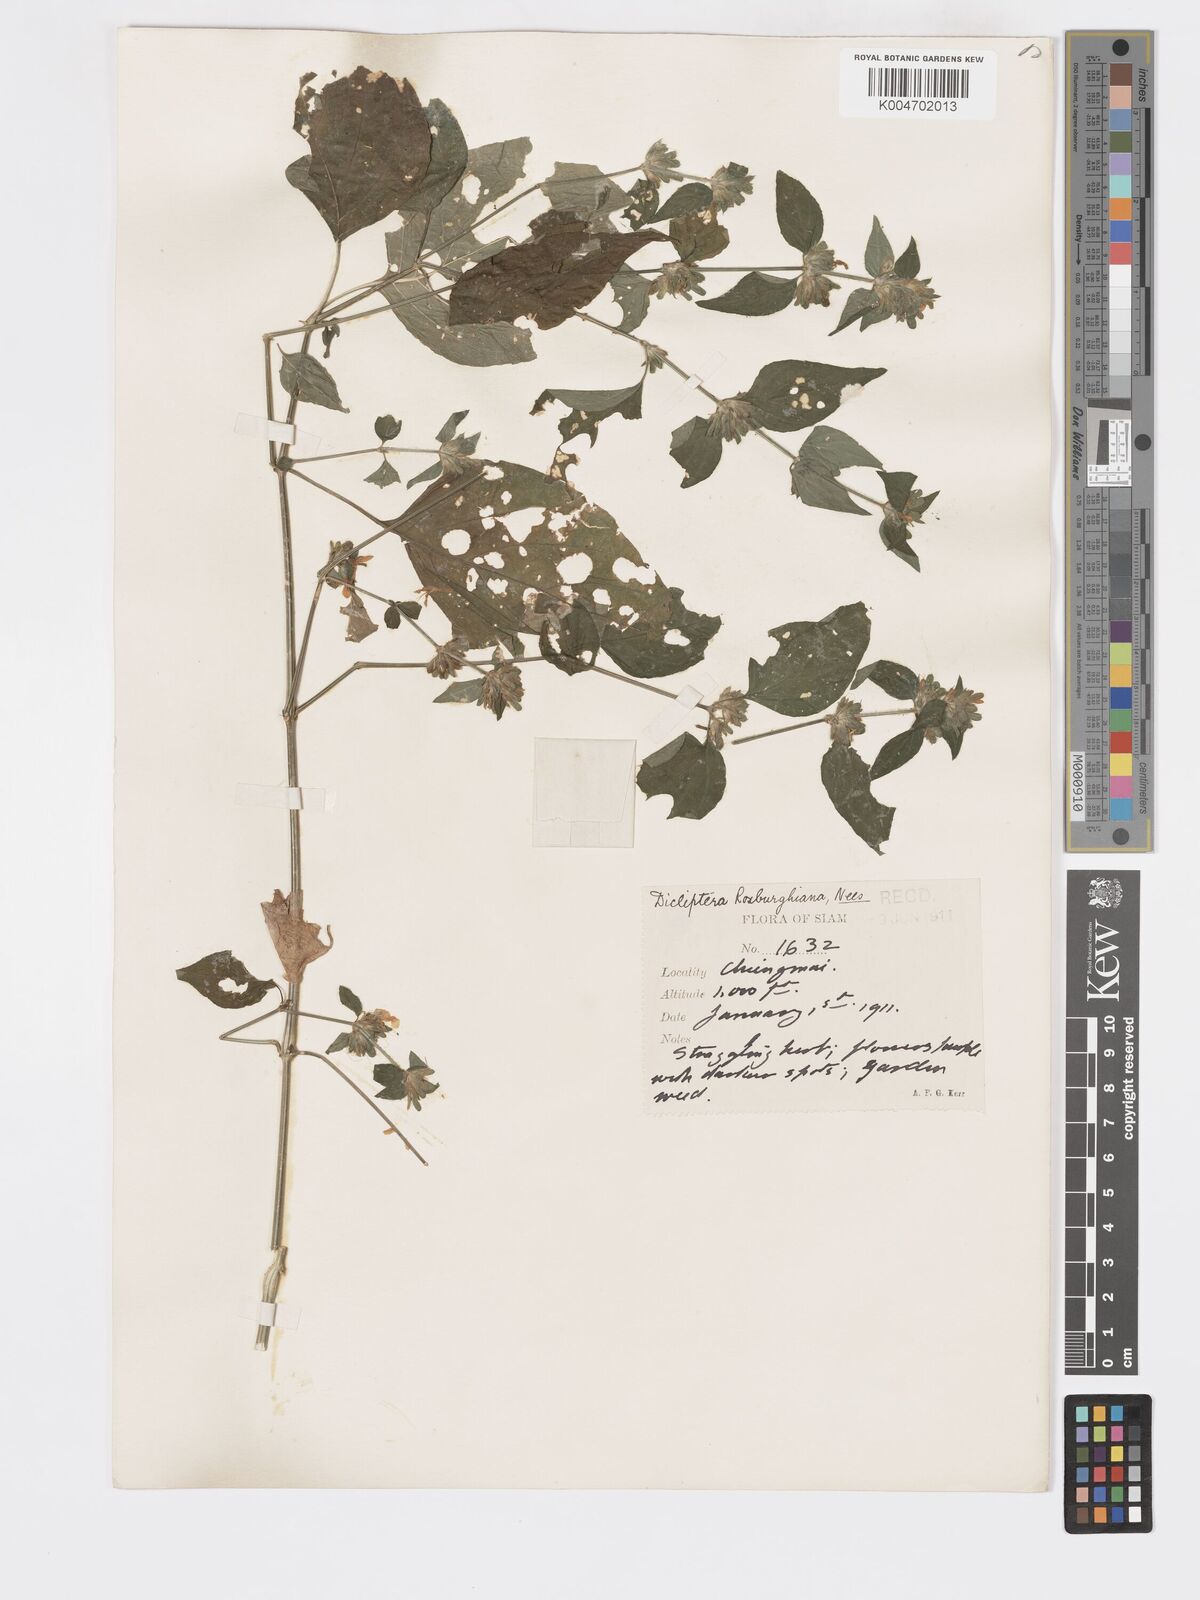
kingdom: Plantae
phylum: Tracheophyta
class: Magnoliopsida
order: Lamiales
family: Acanthaceae
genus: Dicliptera
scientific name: Dicliptera chinensis
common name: Chinese foldwing
